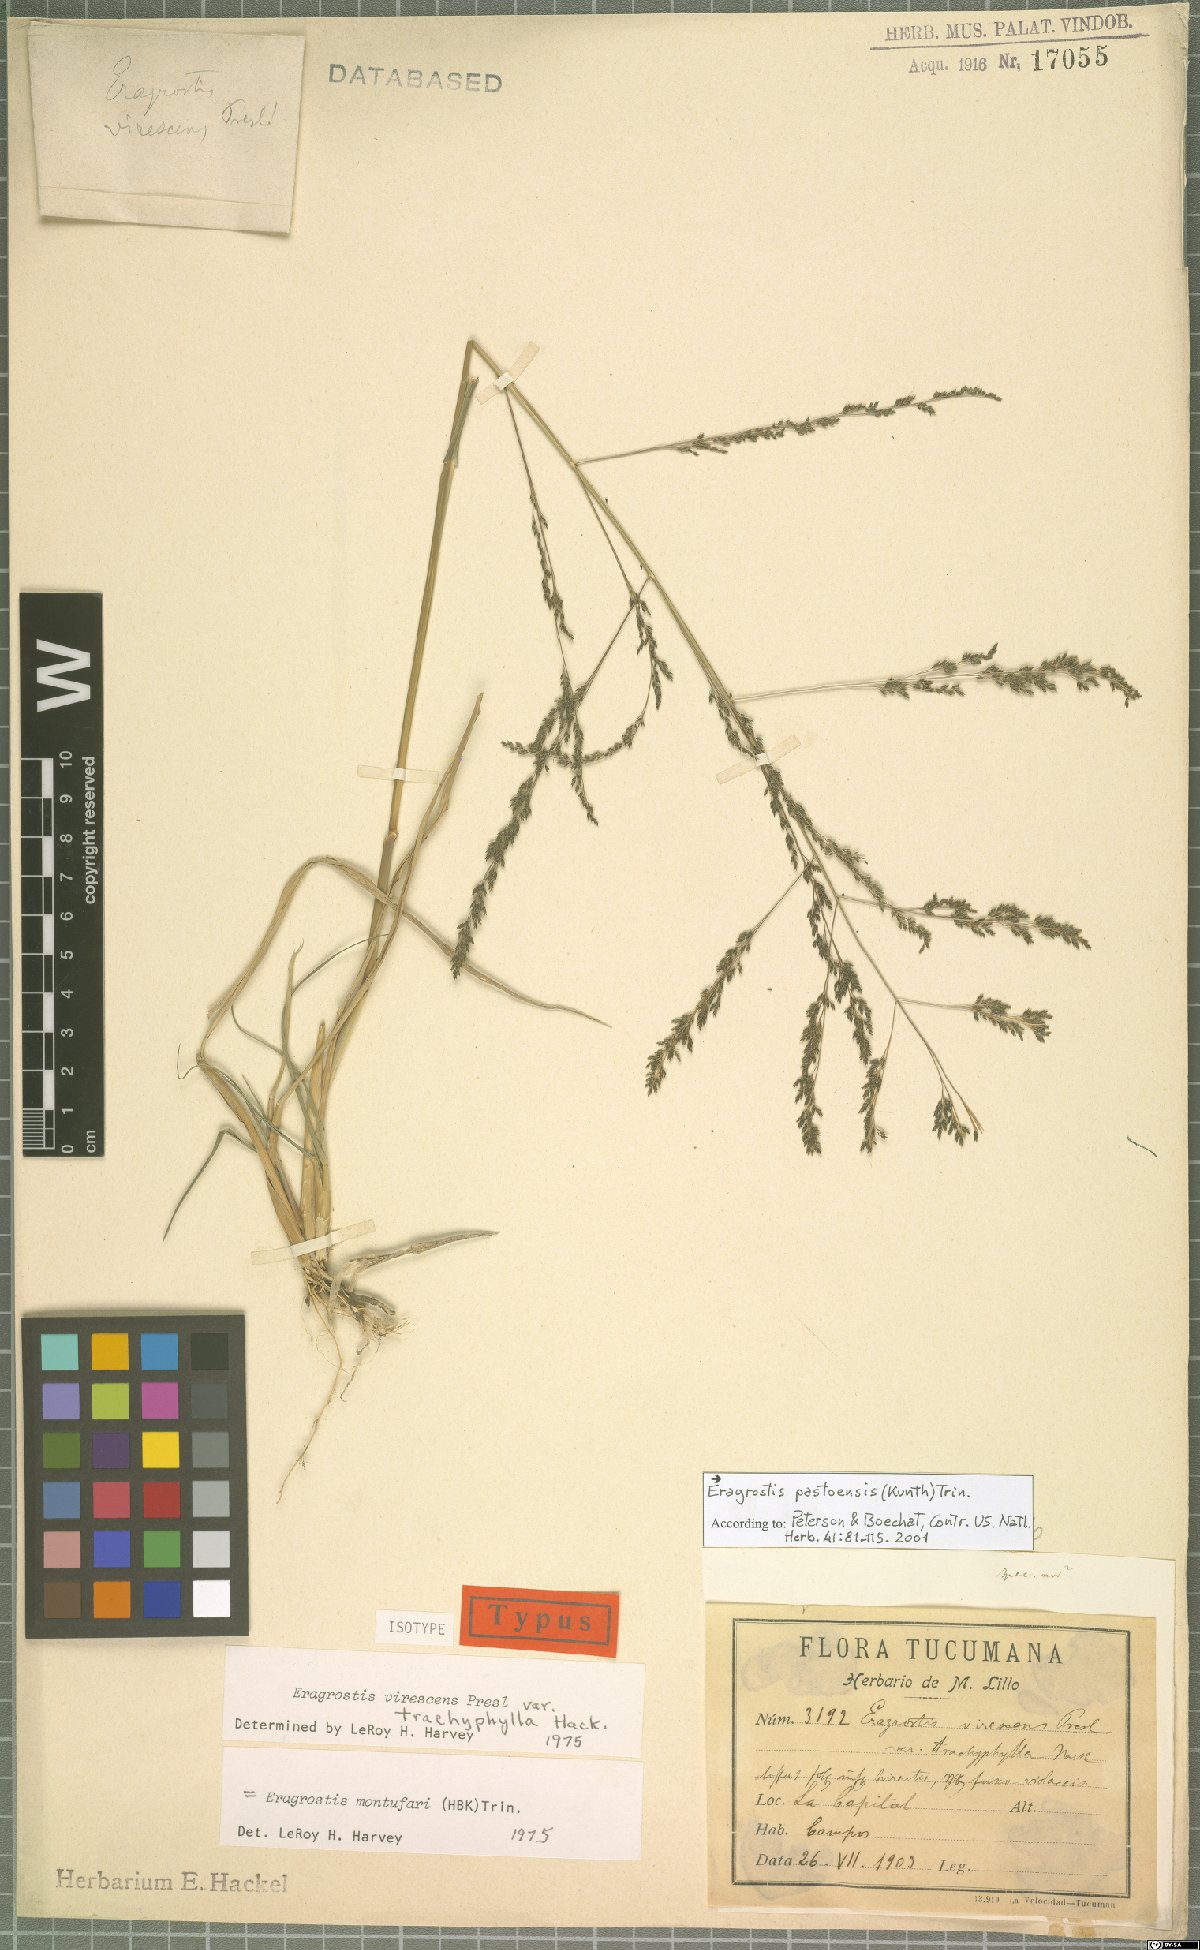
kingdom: Plantae
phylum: Tracheophyta
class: Liliopsida
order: Poales
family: Poaceae
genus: Eragrostis
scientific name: Eragrostis pastoensis
